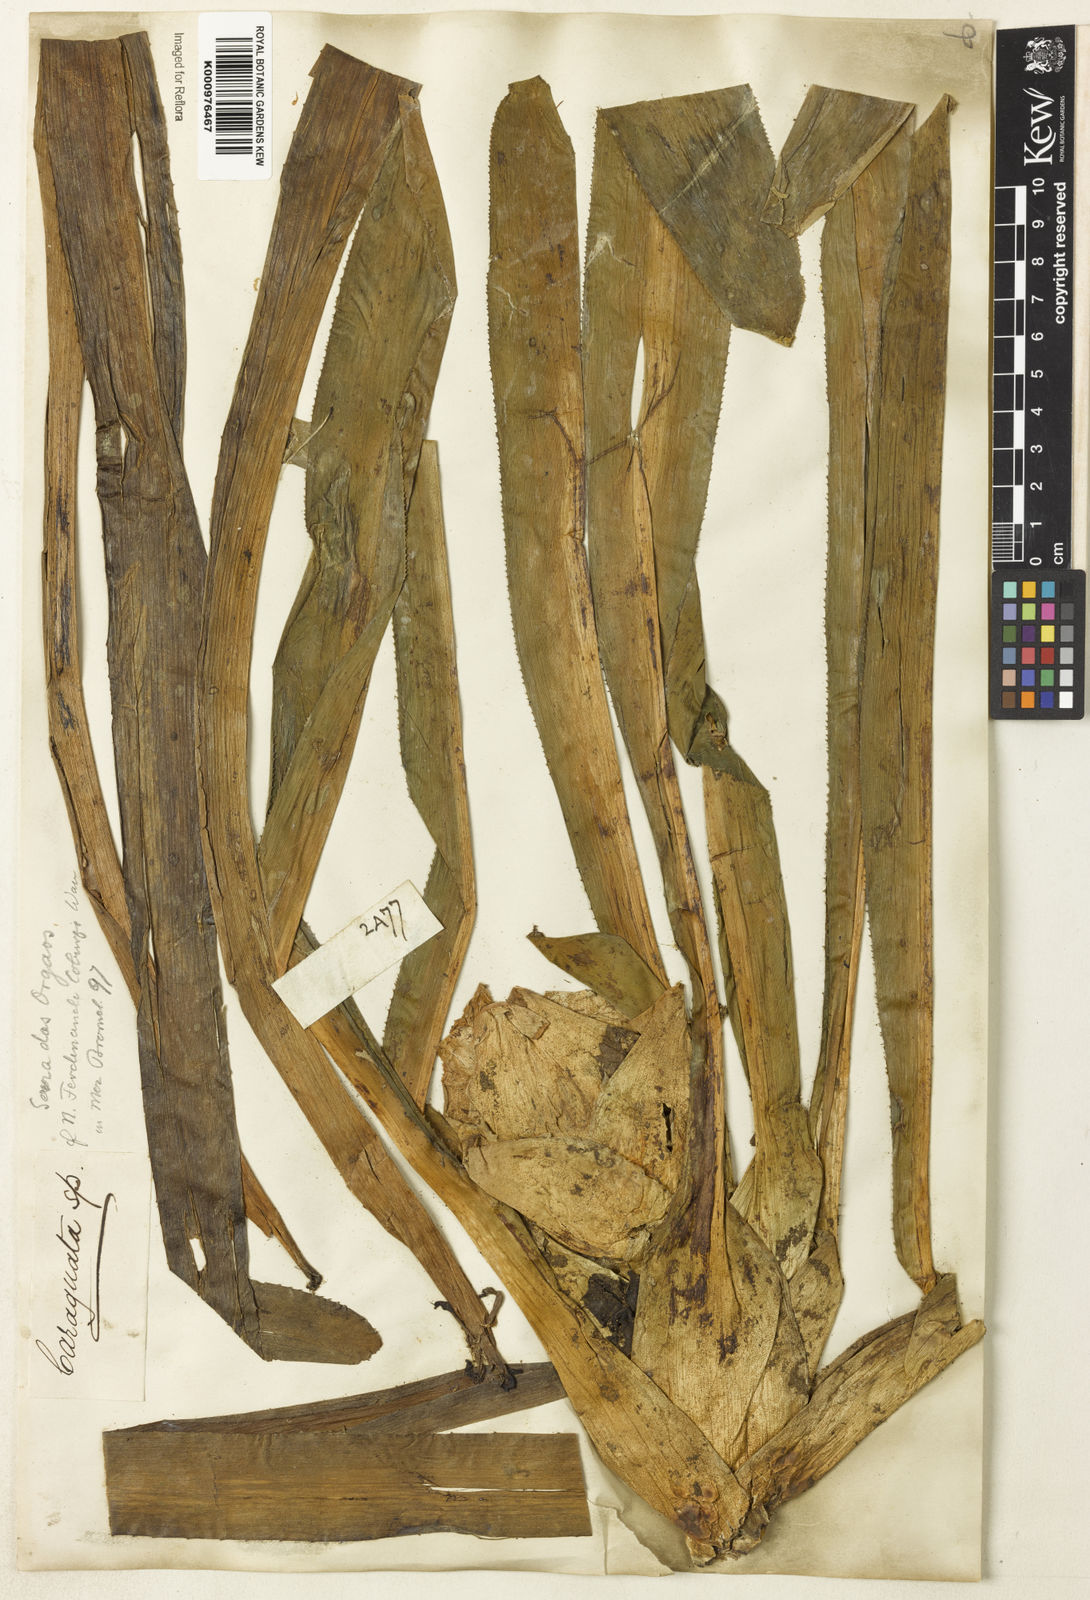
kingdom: Plantae
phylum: Tracheophyta
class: Liliopsida
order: Poales
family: Bromeliaceae
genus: Nidularium
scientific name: Nidularium ferdinando-coburgii
